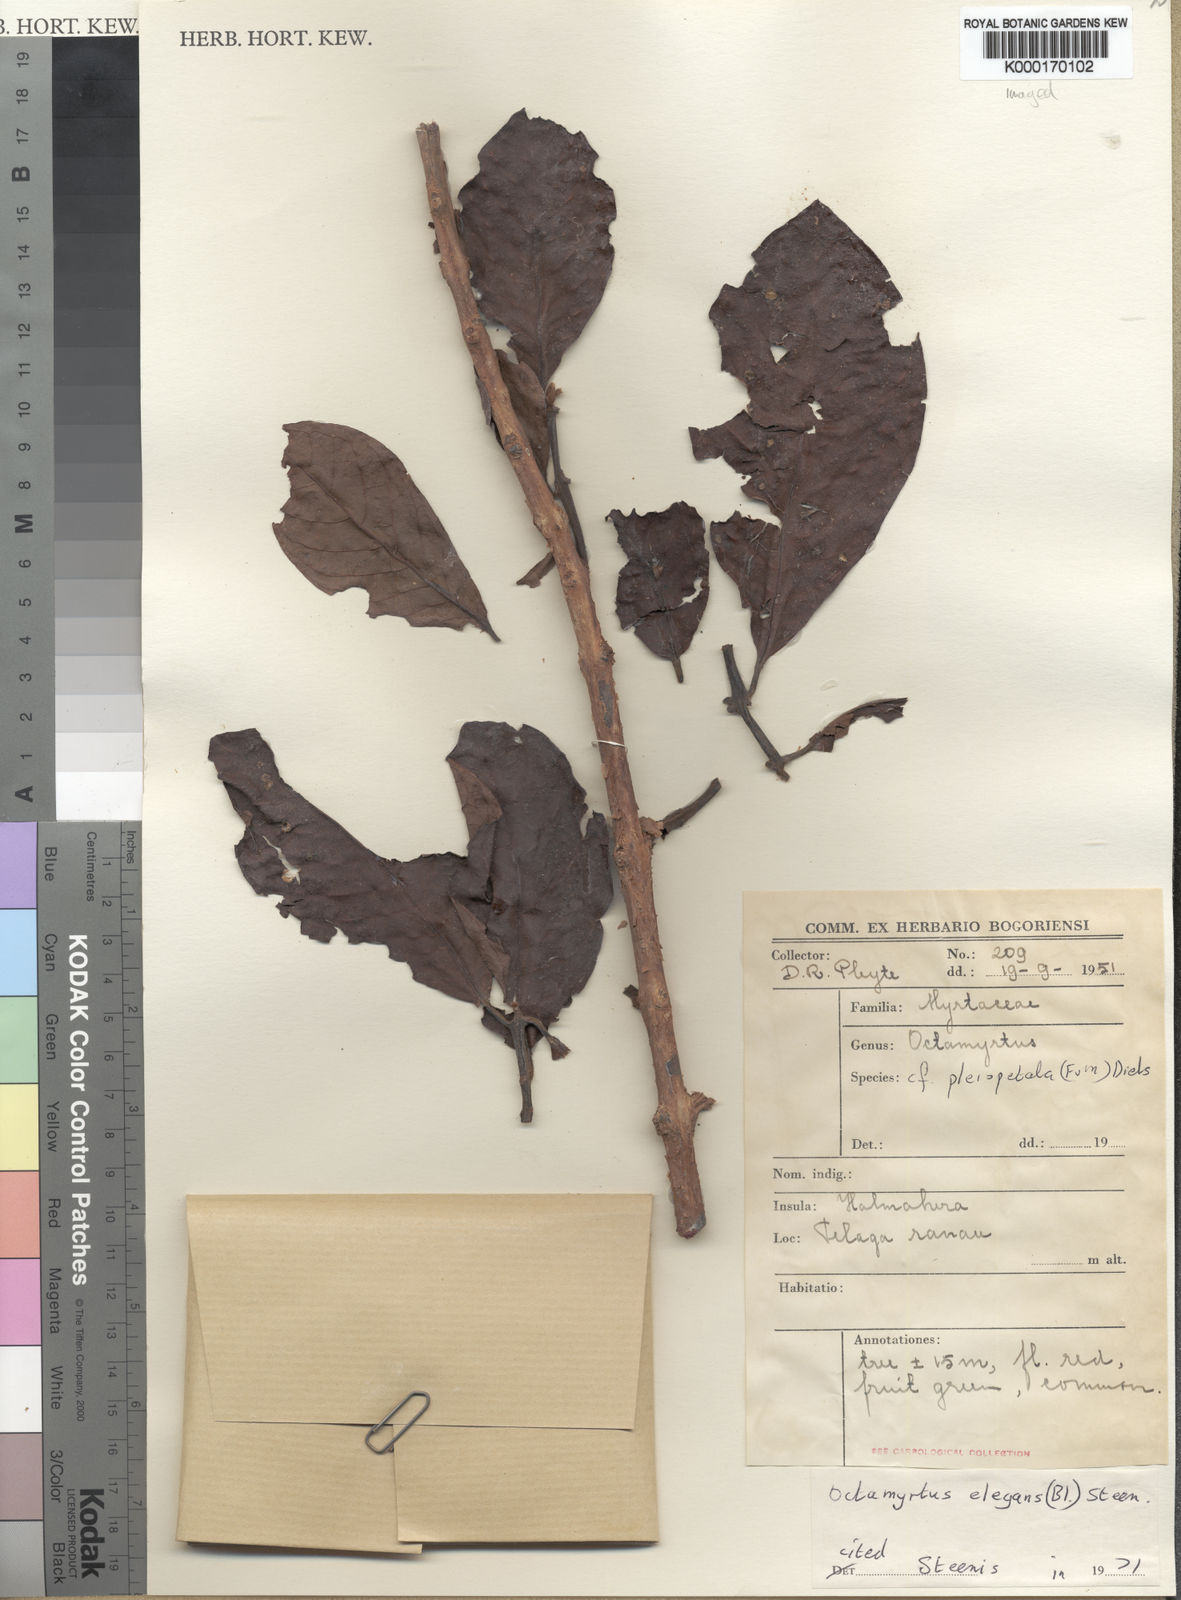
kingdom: Plantae
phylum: Tracheophyta
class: Magnoliopsida
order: Myrtales
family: Myrtaceae
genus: Octamyrtus
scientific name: Octamyrtus pleiopetala
